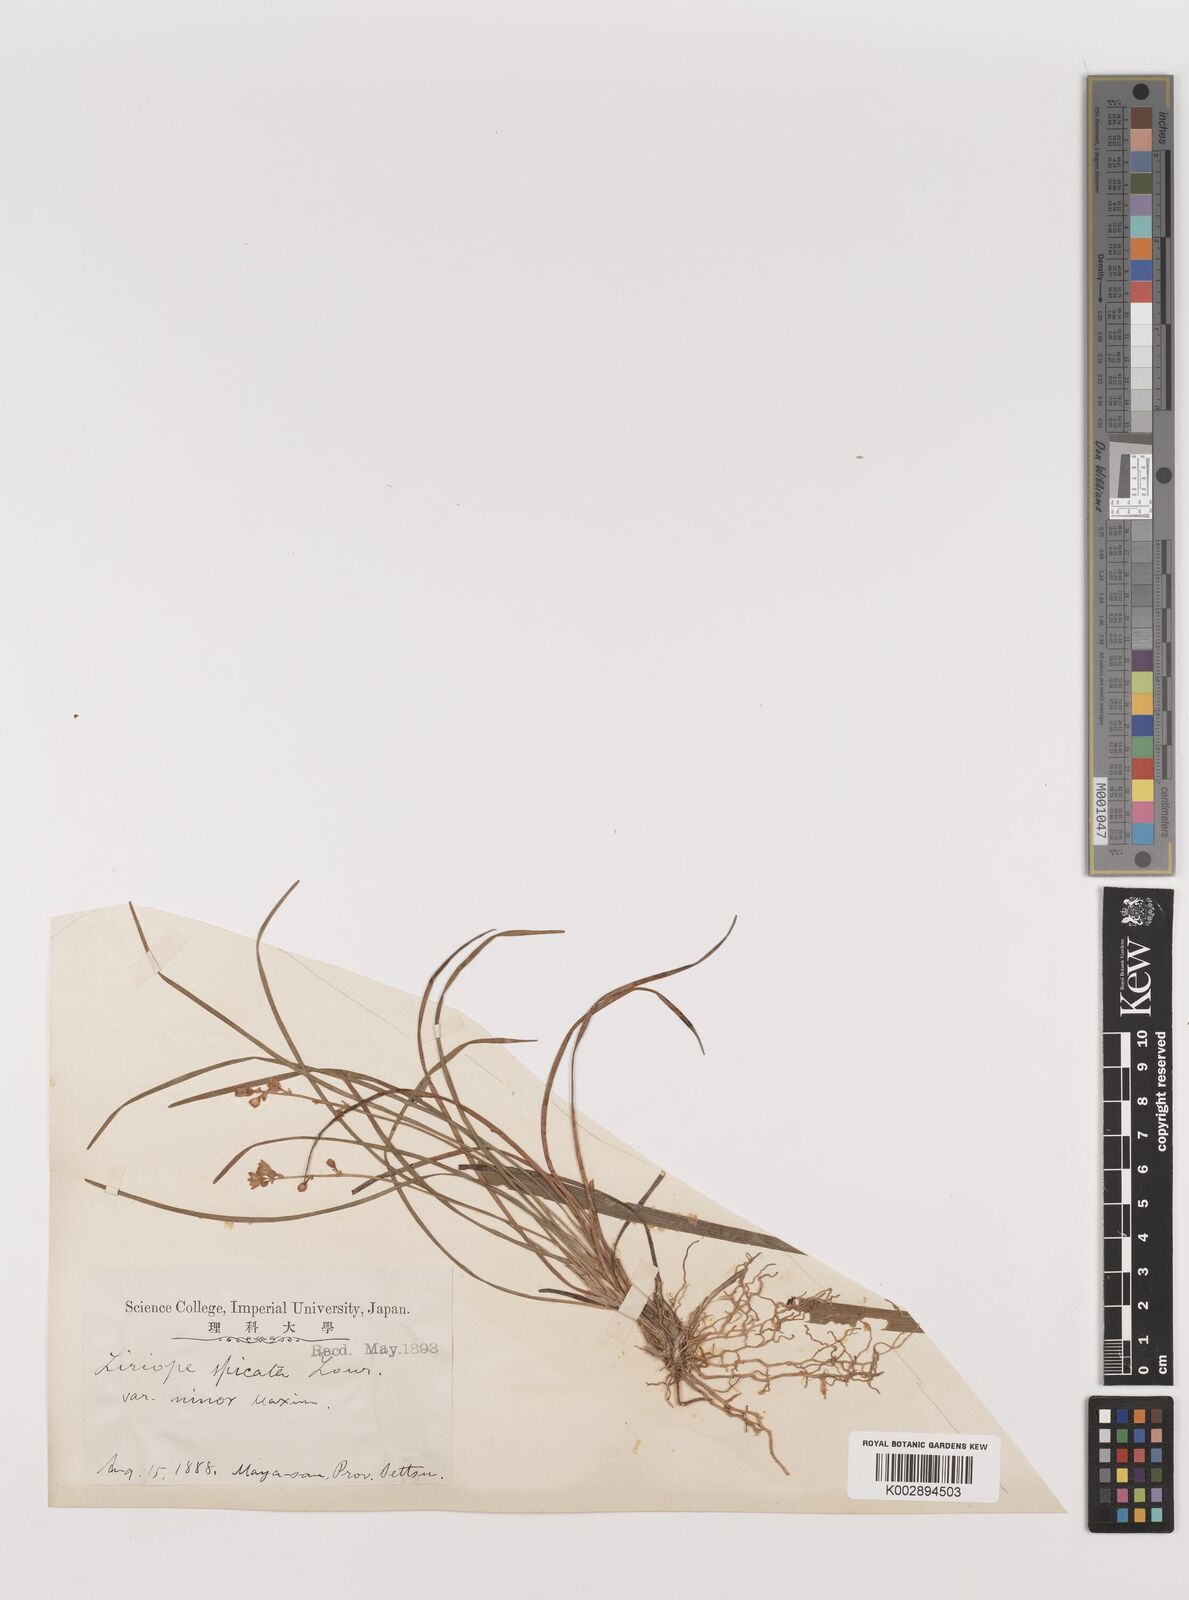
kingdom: Plantae
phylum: Tracheophyta
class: Liliopsida
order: Asparagales
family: Asparagaceae
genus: Liriope
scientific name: Liriope minor
